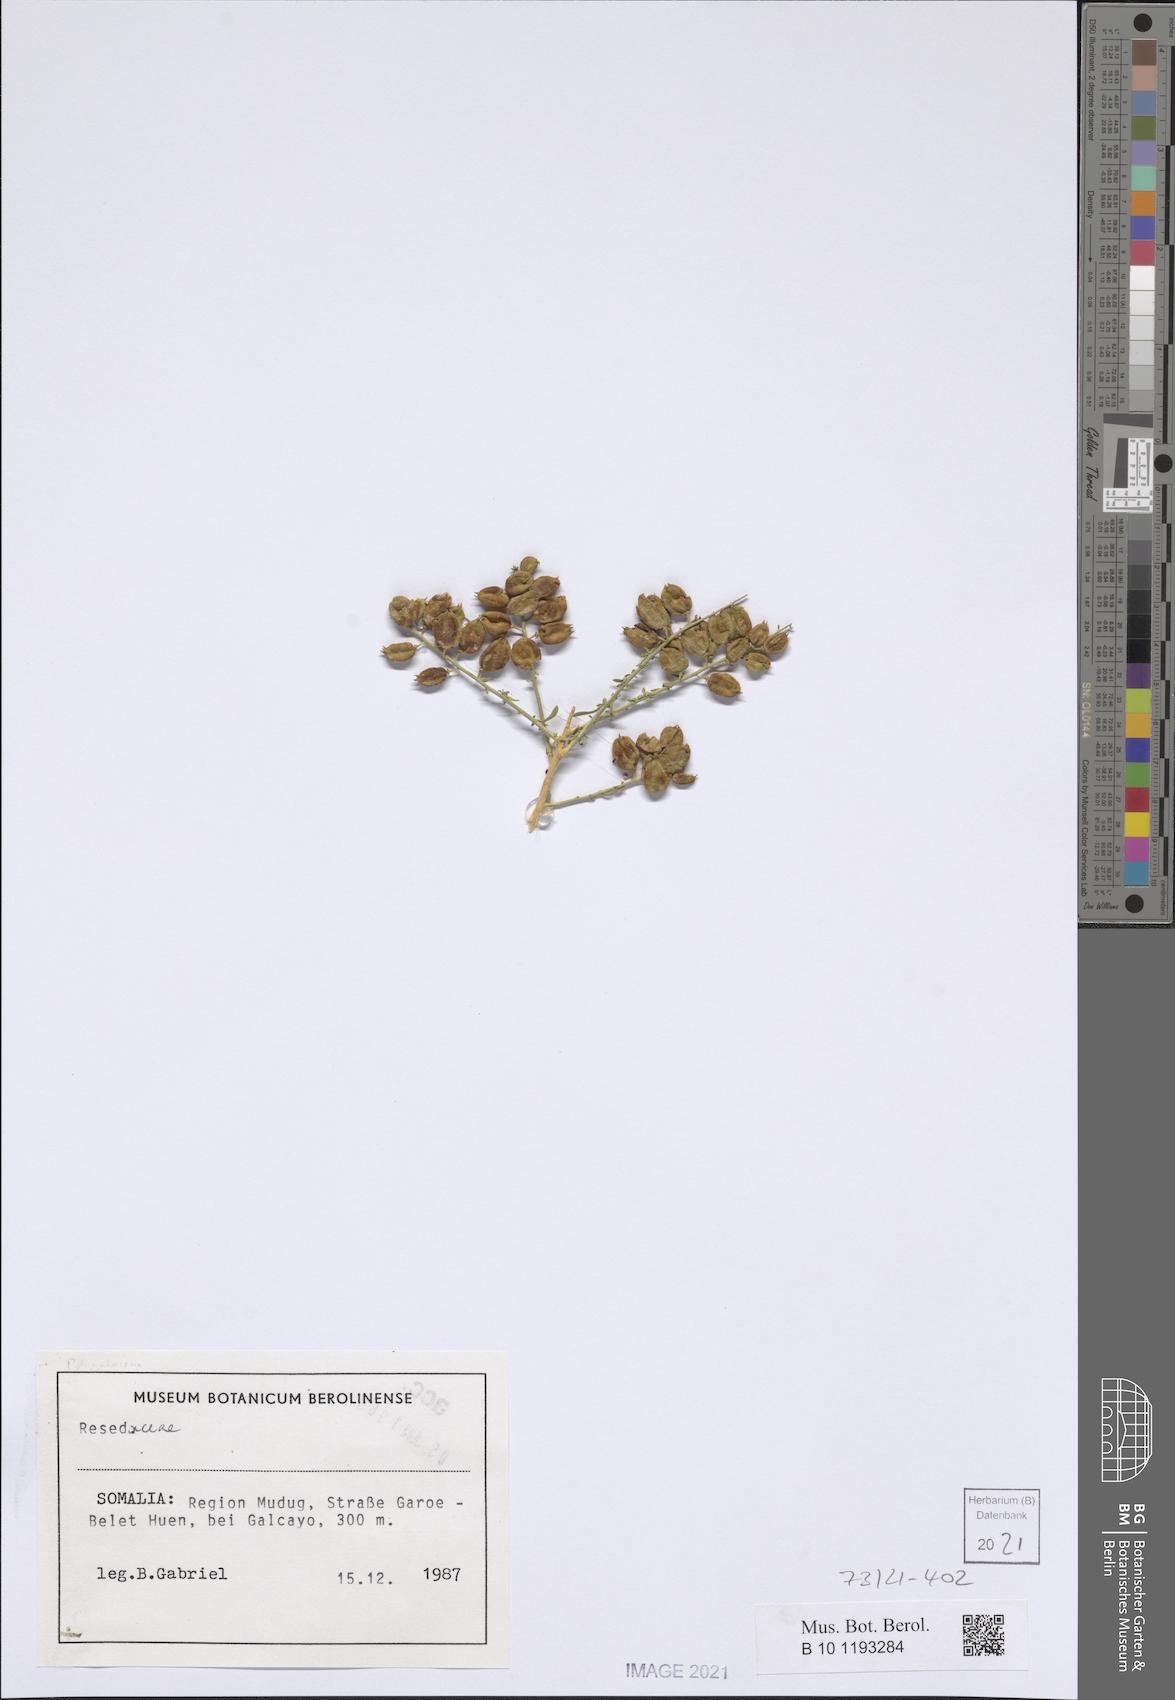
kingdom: Plantae
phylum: Tracheophyta
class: Magnoliopsida
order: Brassicales
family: Resedaceae
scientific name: Resedaceae
